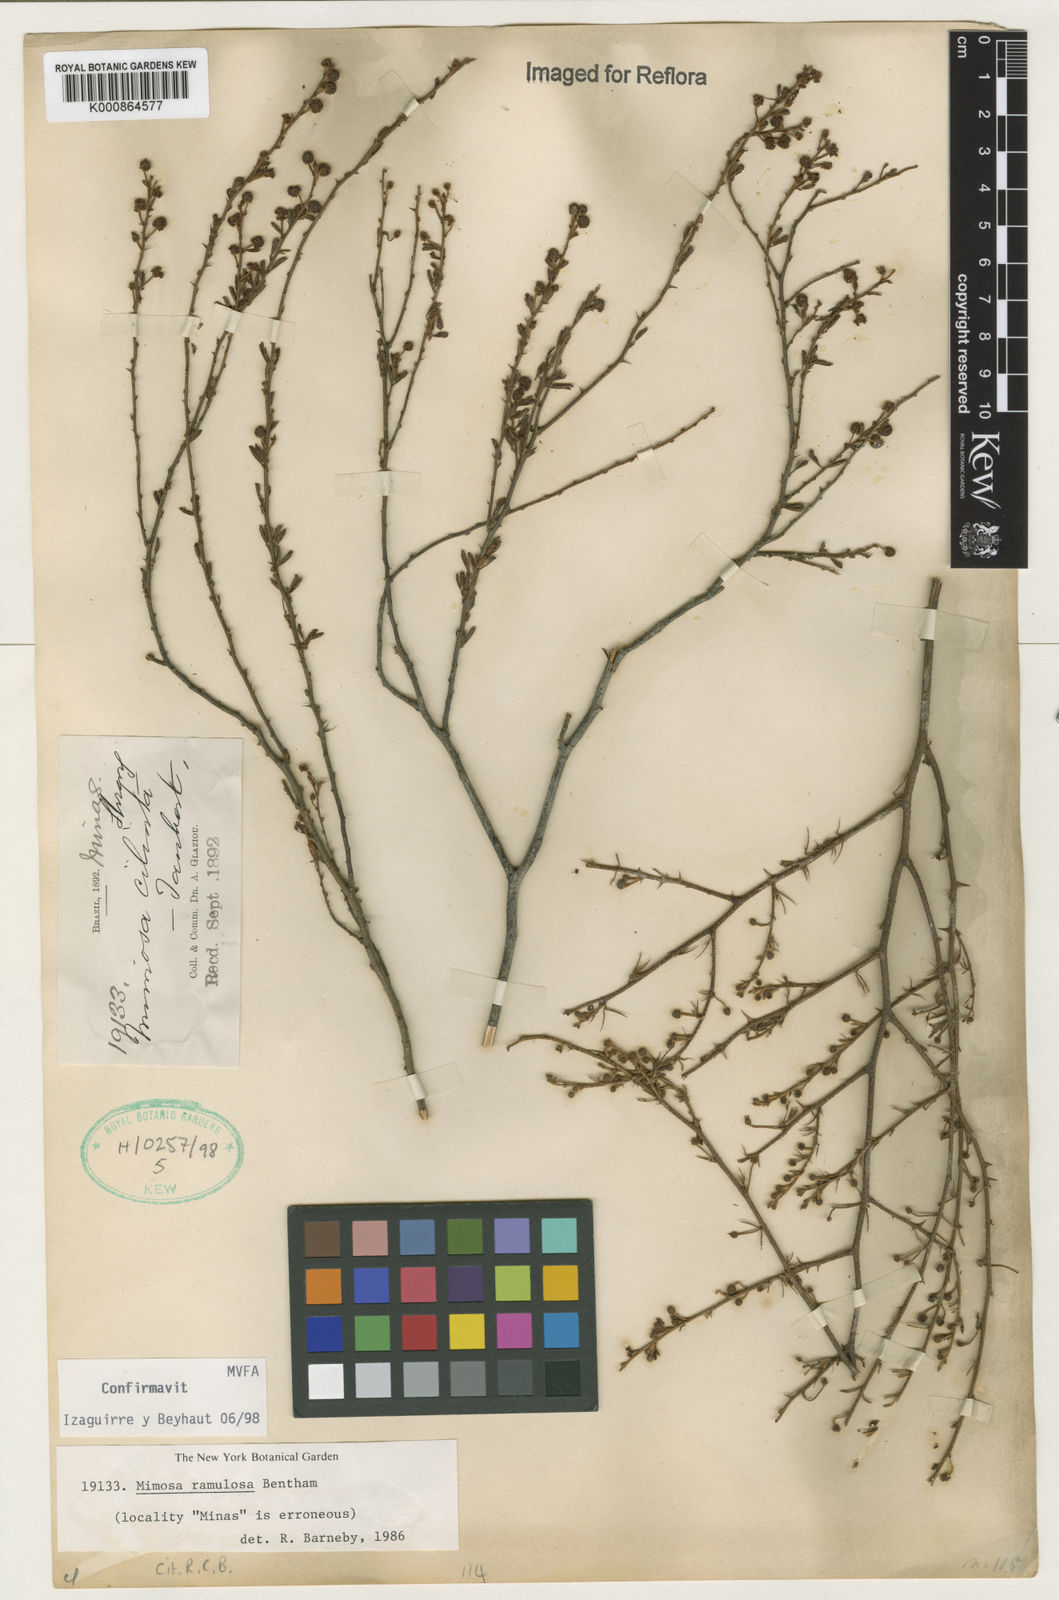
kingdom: Plantae
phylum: Tracheophyta
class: Magnoliopsida
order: Fabales
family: Fabaceae
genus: Mimosa
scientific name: Mimosa ramulosa
